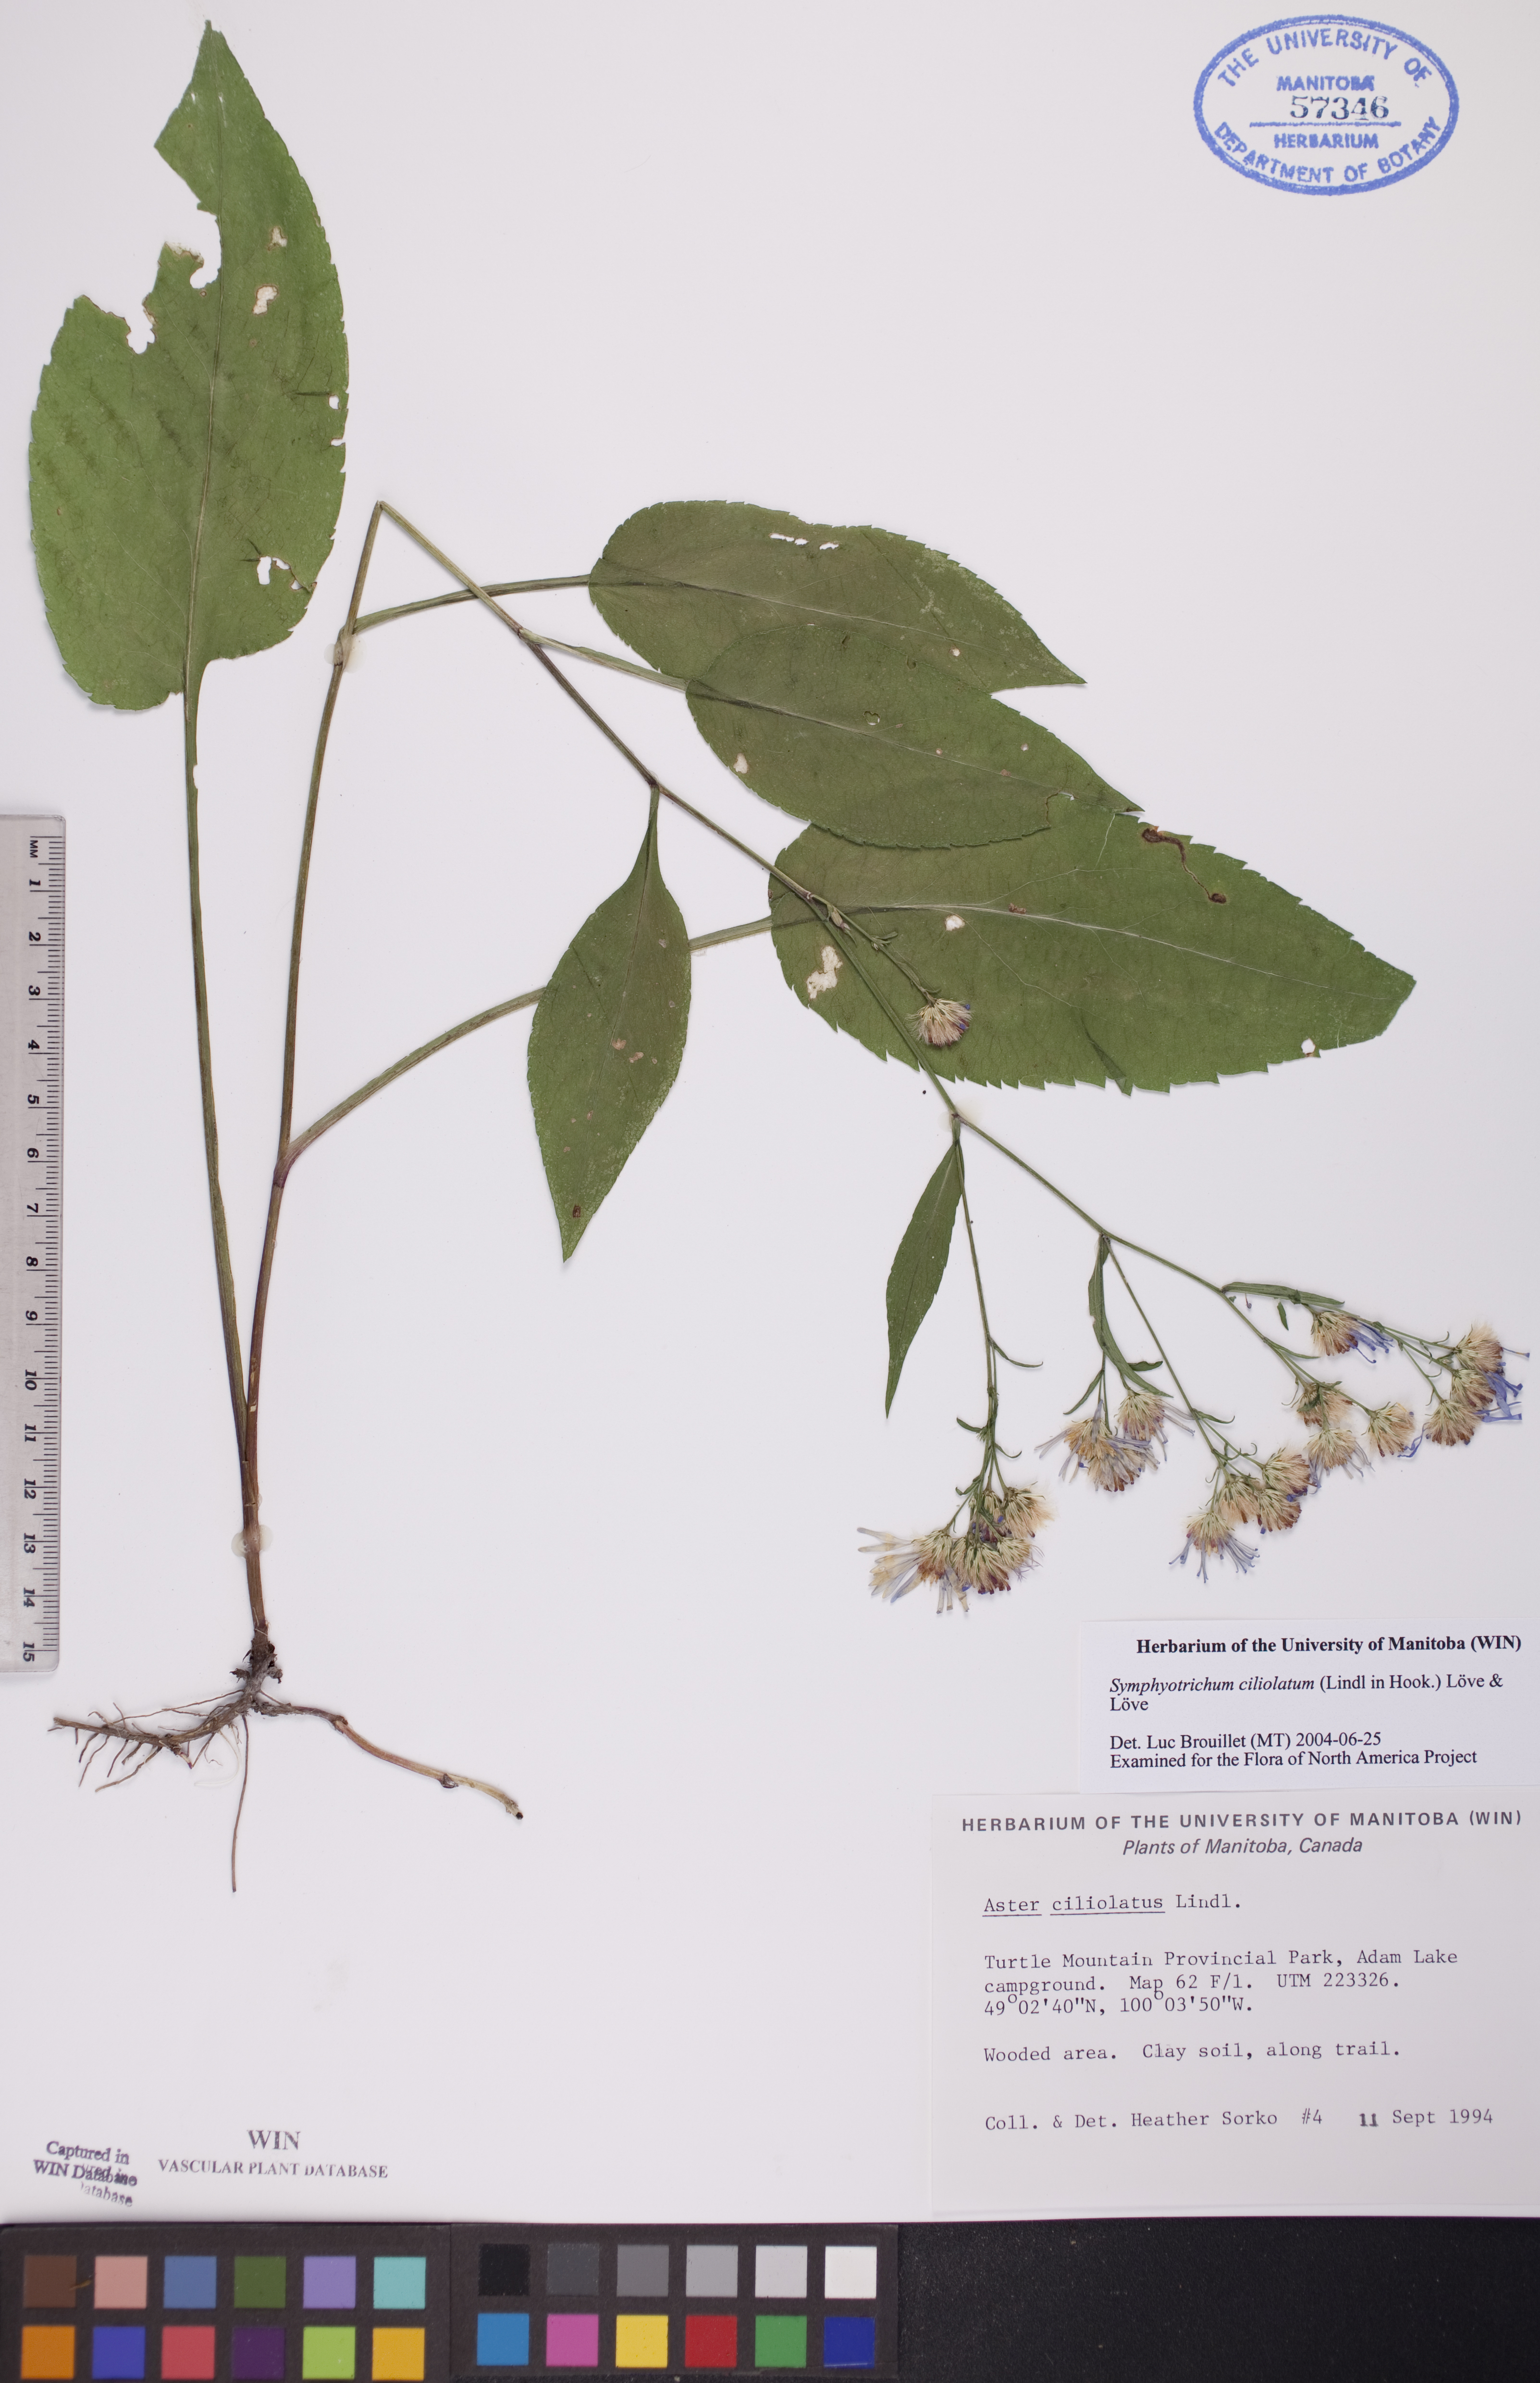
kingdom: Plantae
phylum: Tracheophyta
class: Magnoliopsida
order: Asterales
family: Asteraceae
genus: Symphyotrichum
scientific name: Symphyotrichum ciliolatum
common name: Fringed blue aster
